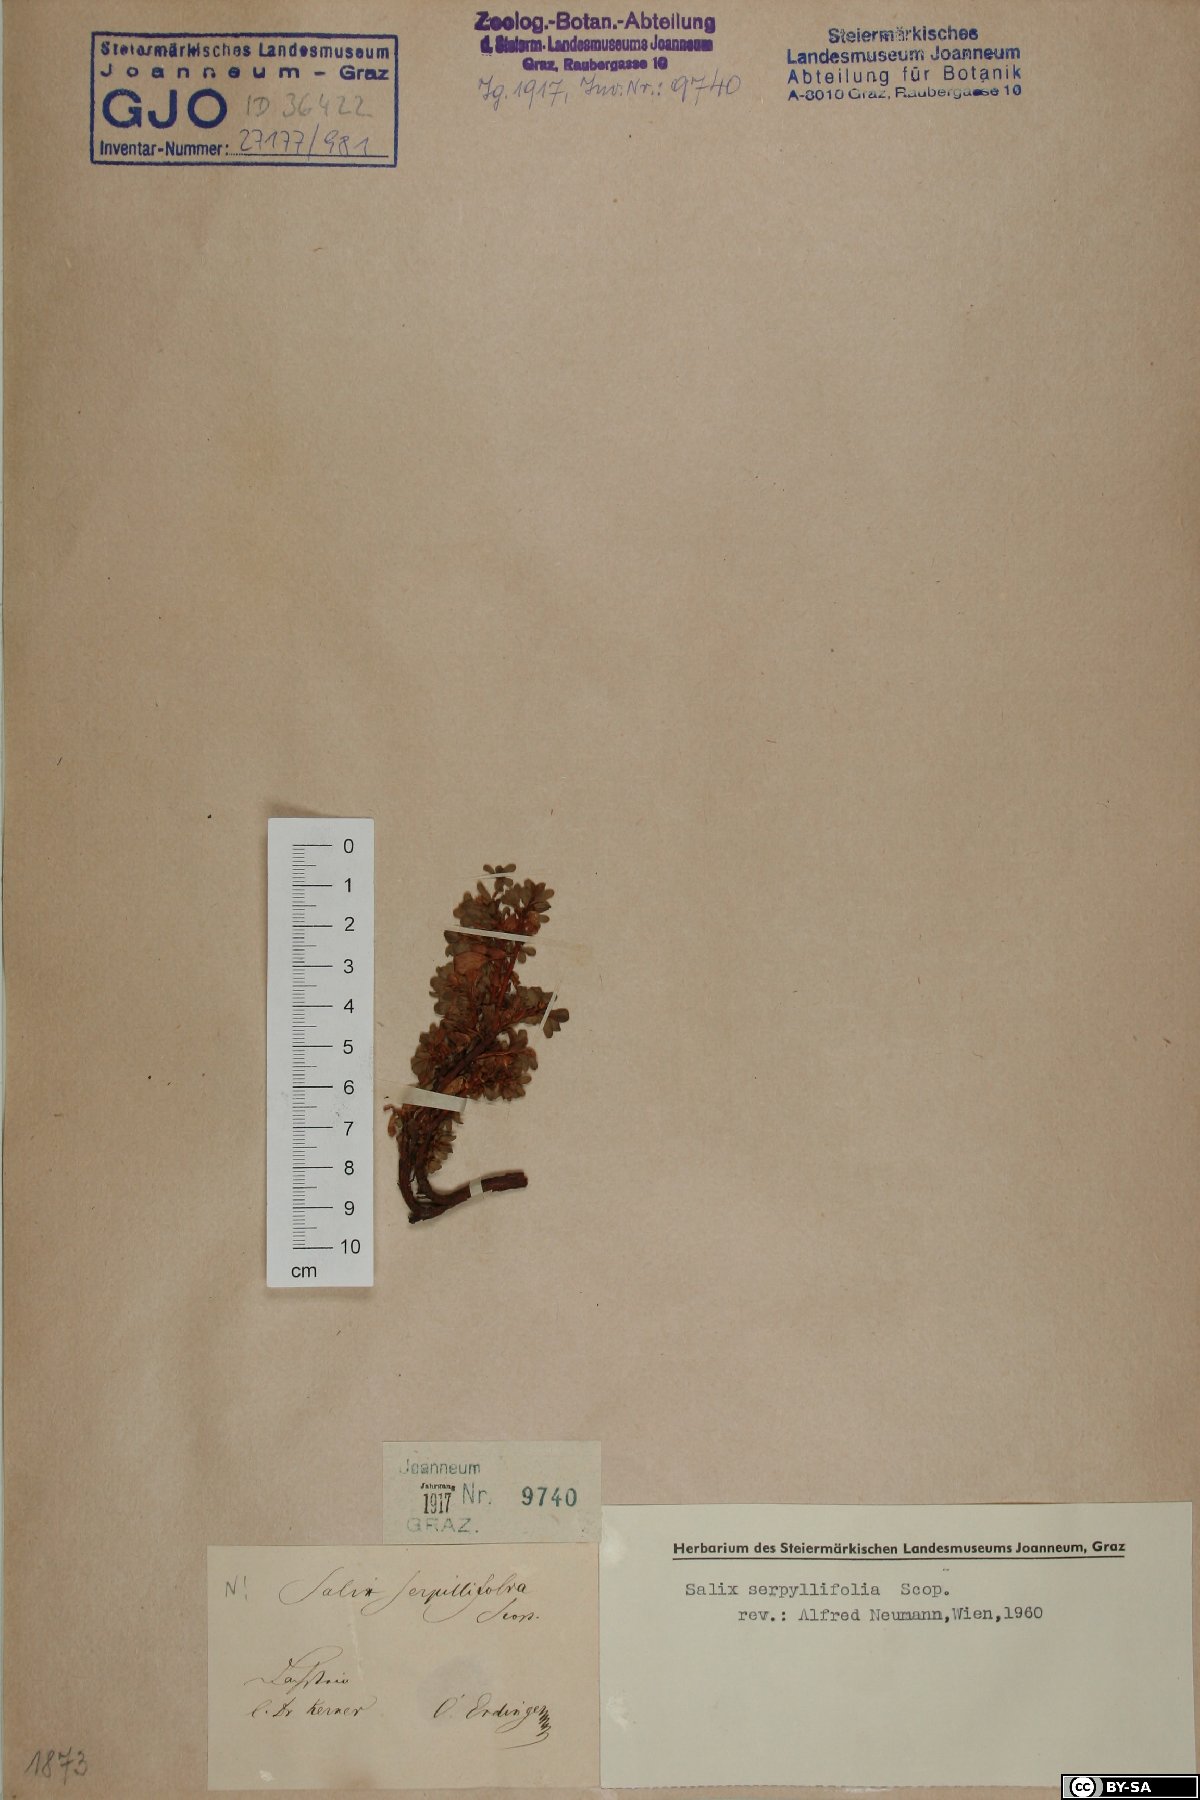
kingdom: Plantae
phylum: Tracheophyta
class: Magnoliopsida
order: Malpighiales
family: Salicaceae
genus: Salix
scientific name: Salix serpillifolia
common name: Thyme-leaf willow
